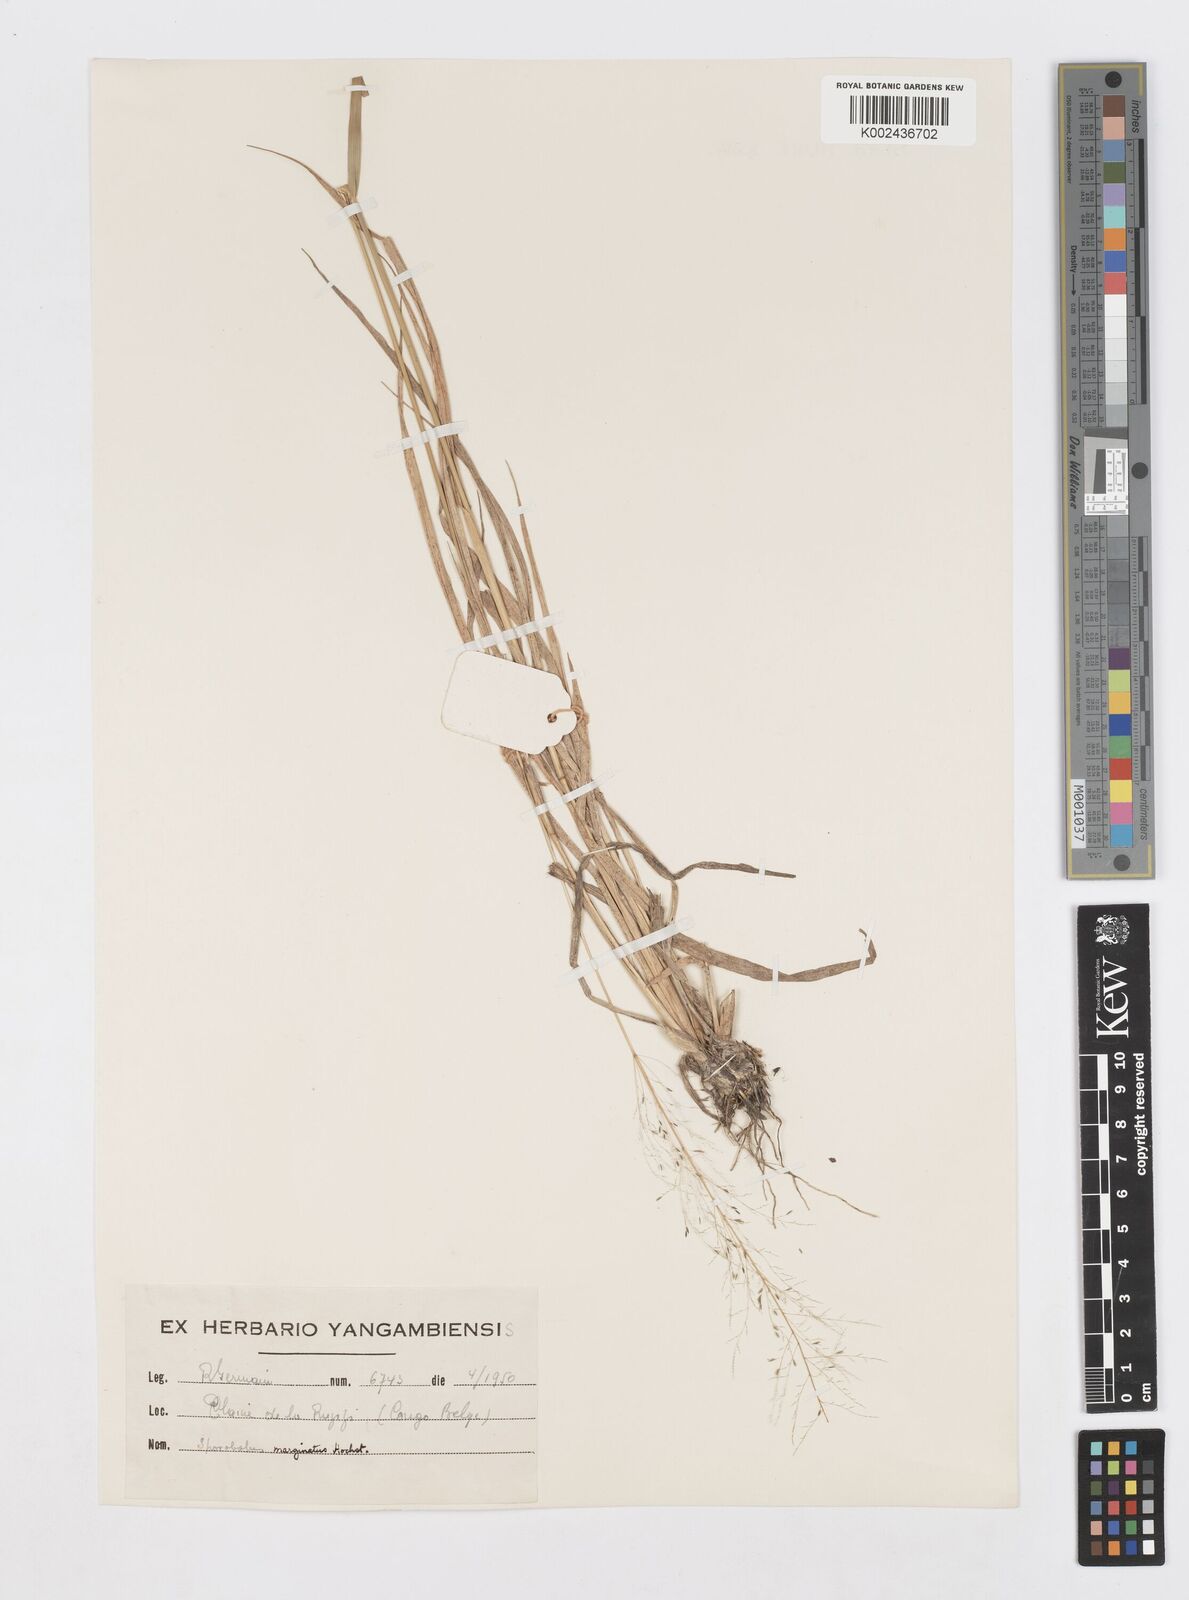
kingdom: Plantae
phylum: Tracheophyta
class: Liliopsida
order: Poales
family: Poaceae
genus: Sporobolus
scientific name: Sporobolus ioclados
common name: Pan dropseed
